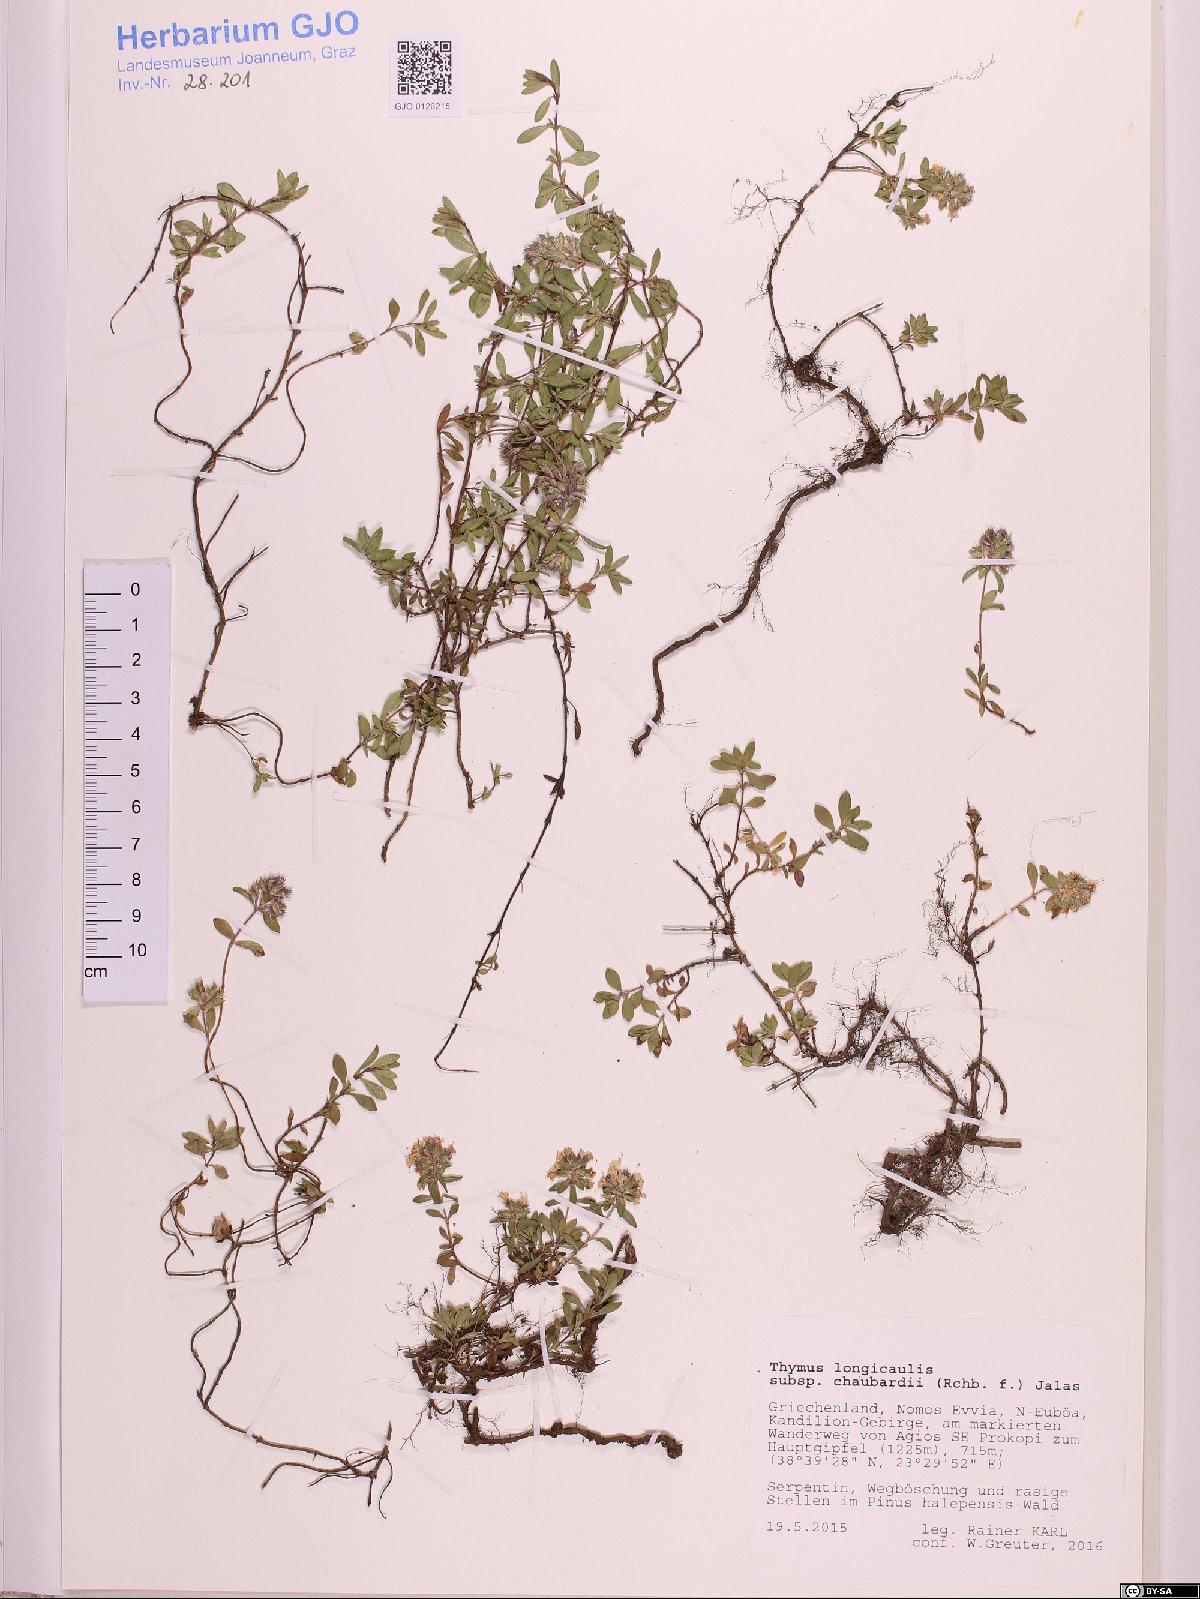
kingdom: Plantae
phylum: Tracheophyta
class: Magnoliopsida
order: Lamiales
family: Lamiaceae
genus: Thymus
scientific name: Thymus longicaulis
